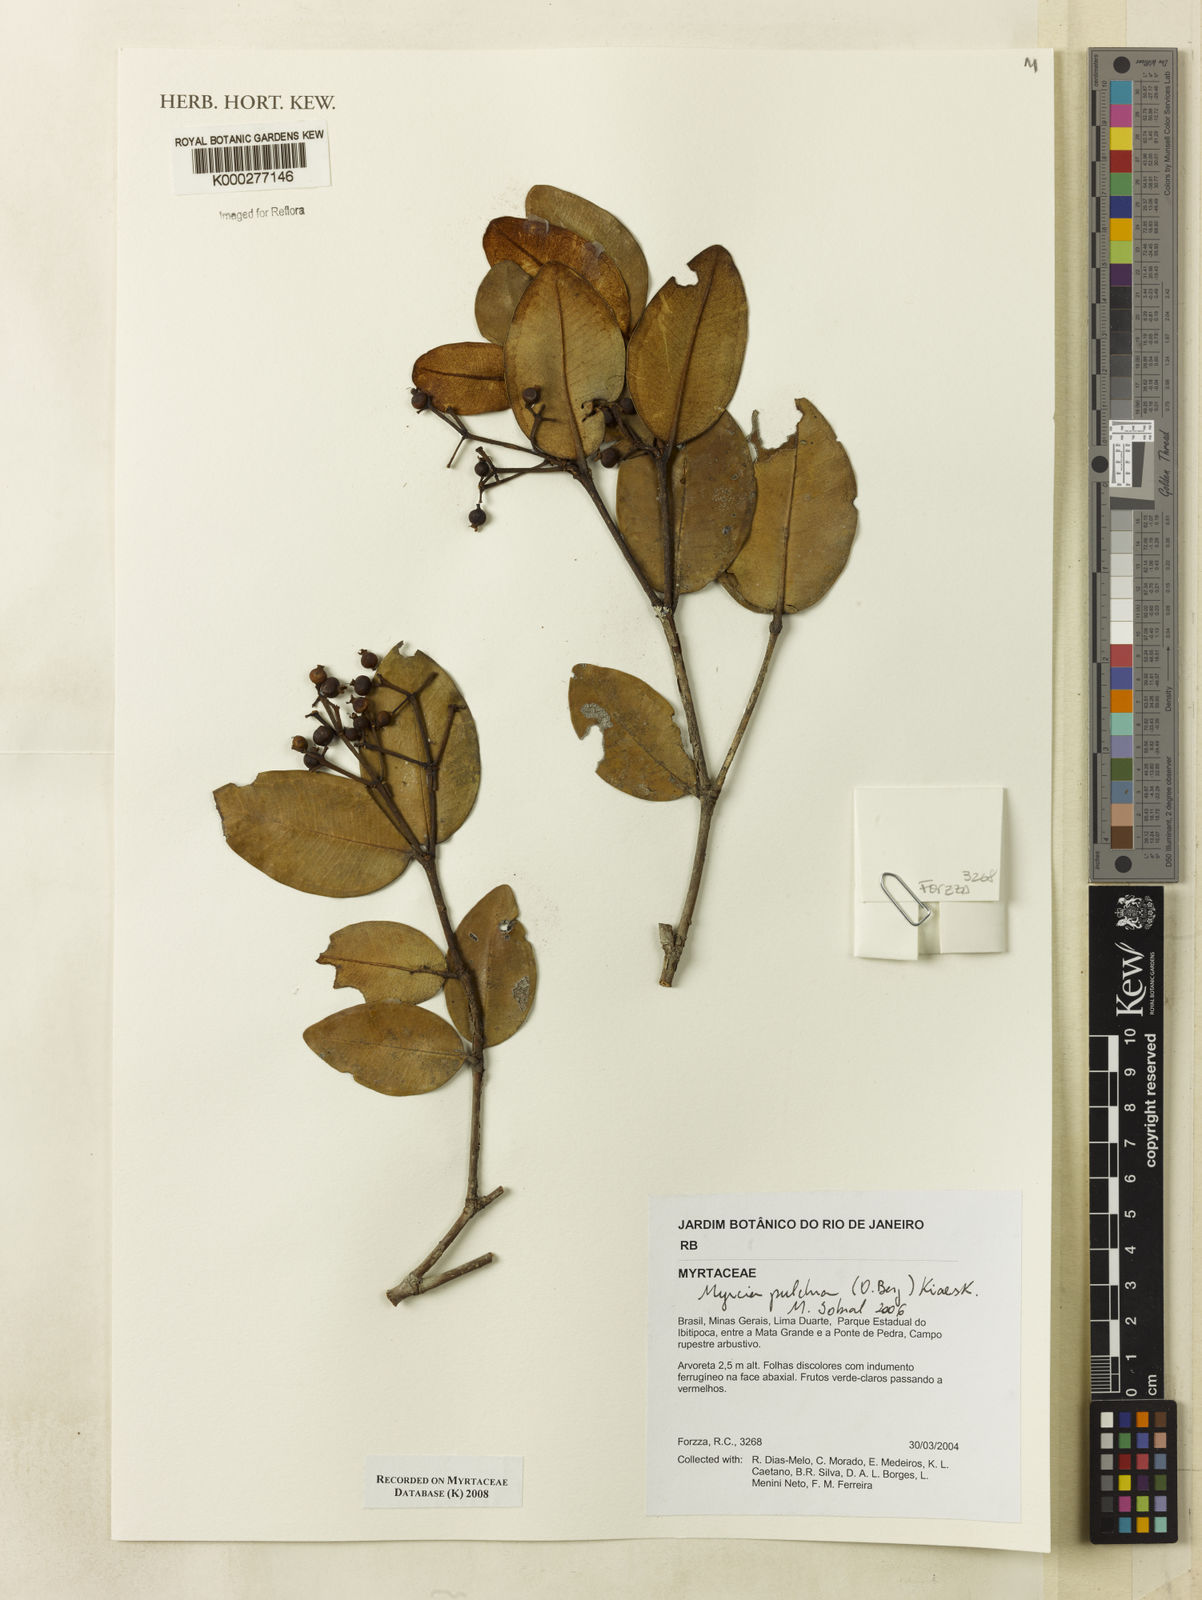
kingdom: Plantae
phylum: Tracheophyta
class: Magnoliopsida
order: Myrtales
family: Myrtaceae
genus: Myrcia
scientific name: Myrcia pulchra
